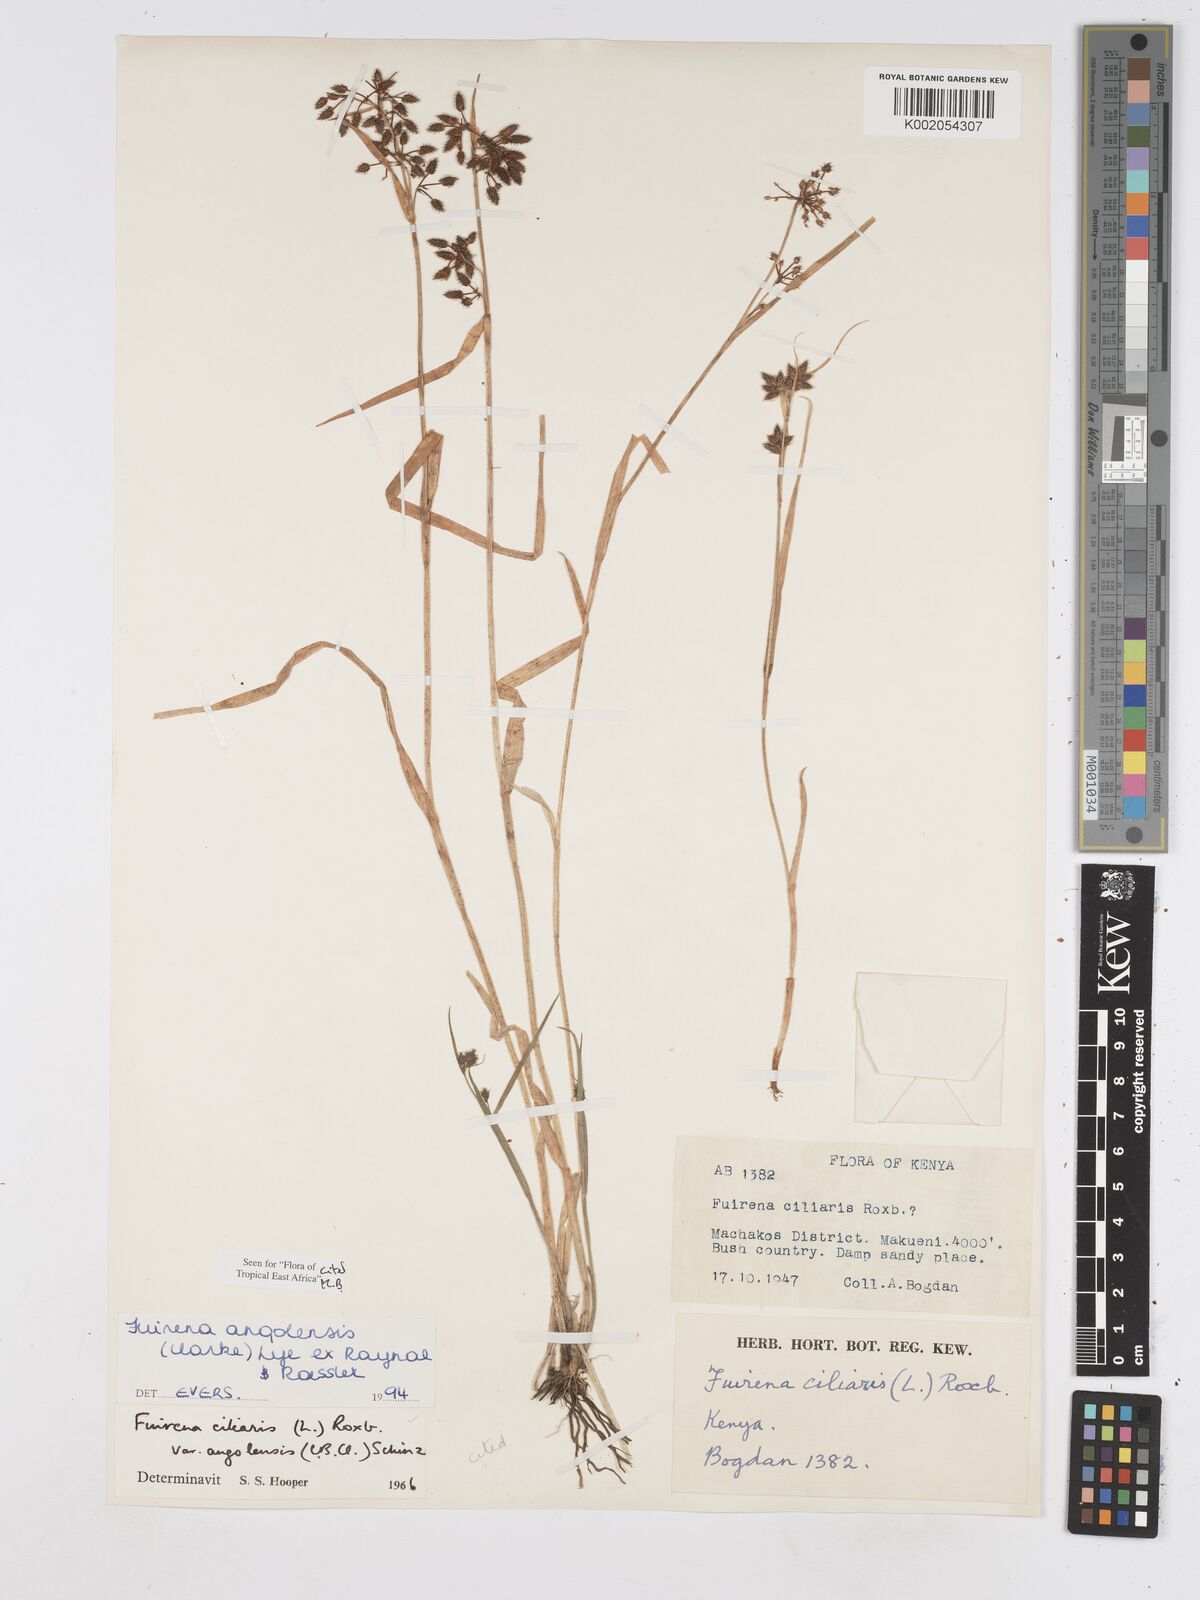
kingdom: Plantae
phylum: Tracheophyta
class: Liliopsida
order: Poales
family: Cyperaceae
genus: Fuirena
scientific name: Fuirena angolensis
